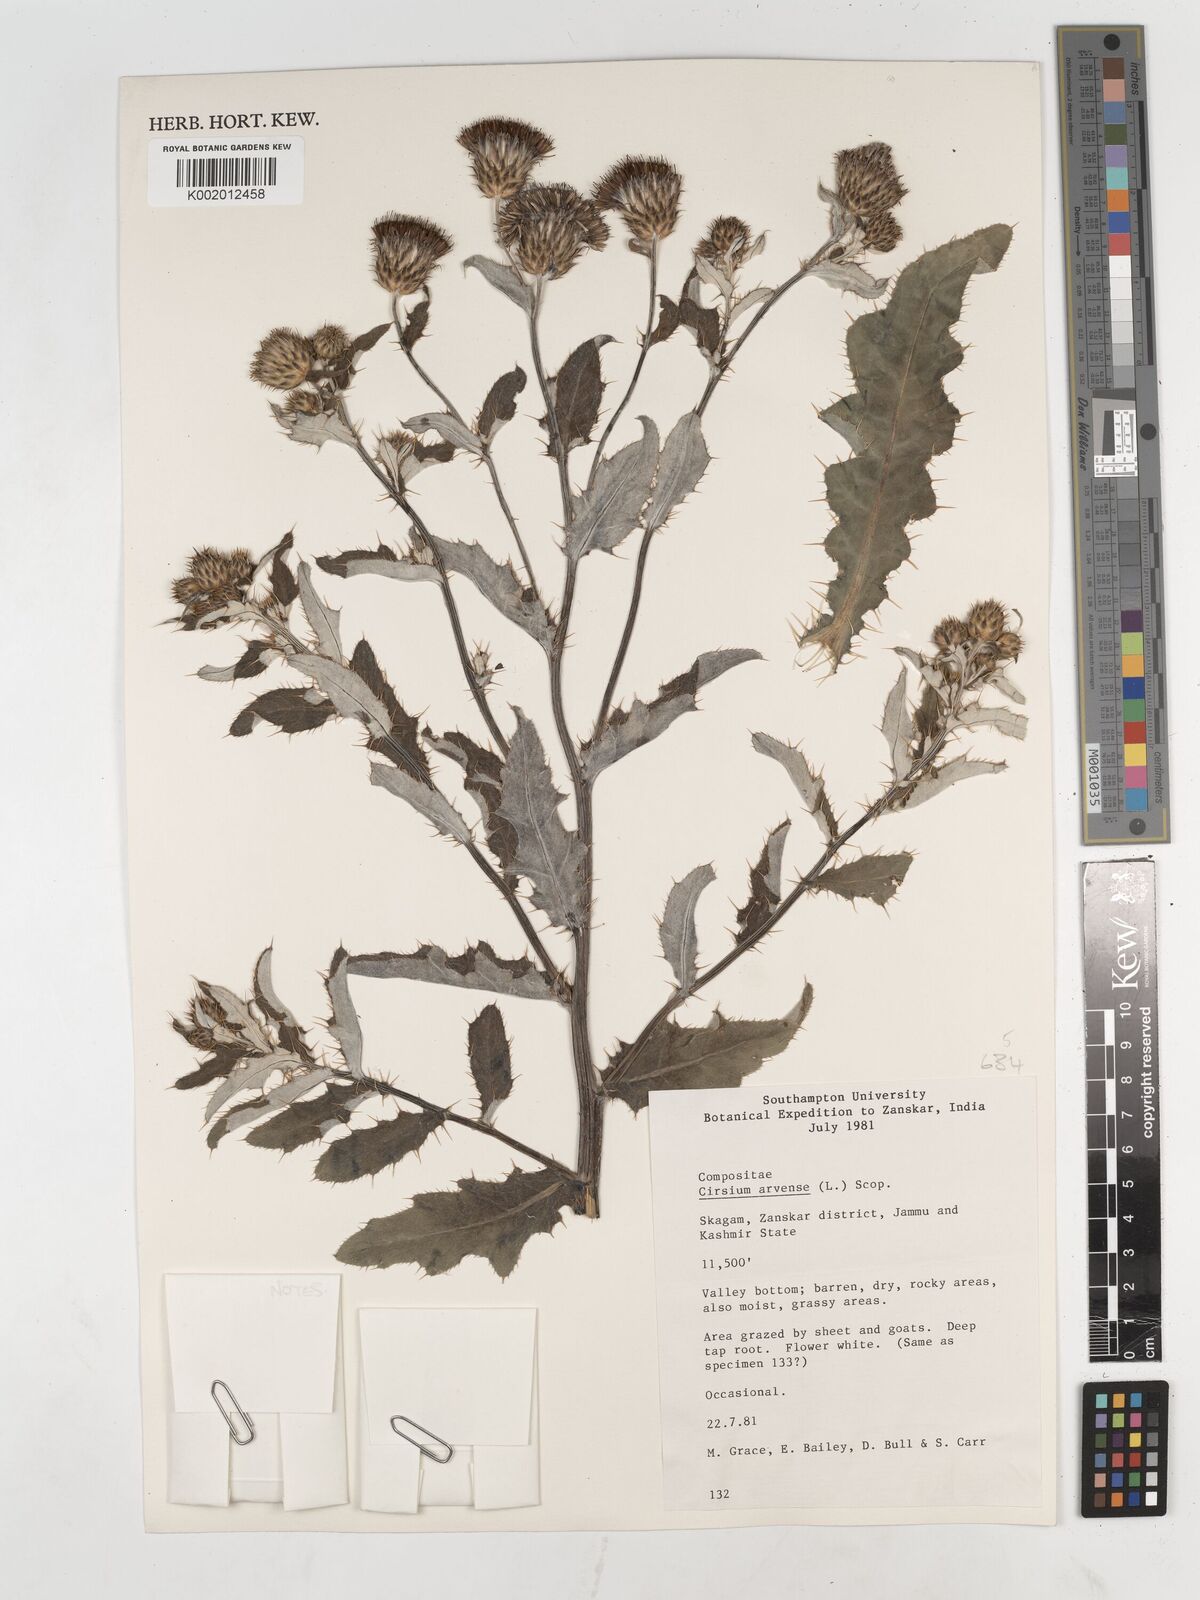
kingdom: Plantae
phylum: Tracheophyta
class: Magnoliopsida
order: Asterales
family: Asteraceae
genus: Cirsium
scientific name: Cirsium arvense
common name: Creeping thistle
